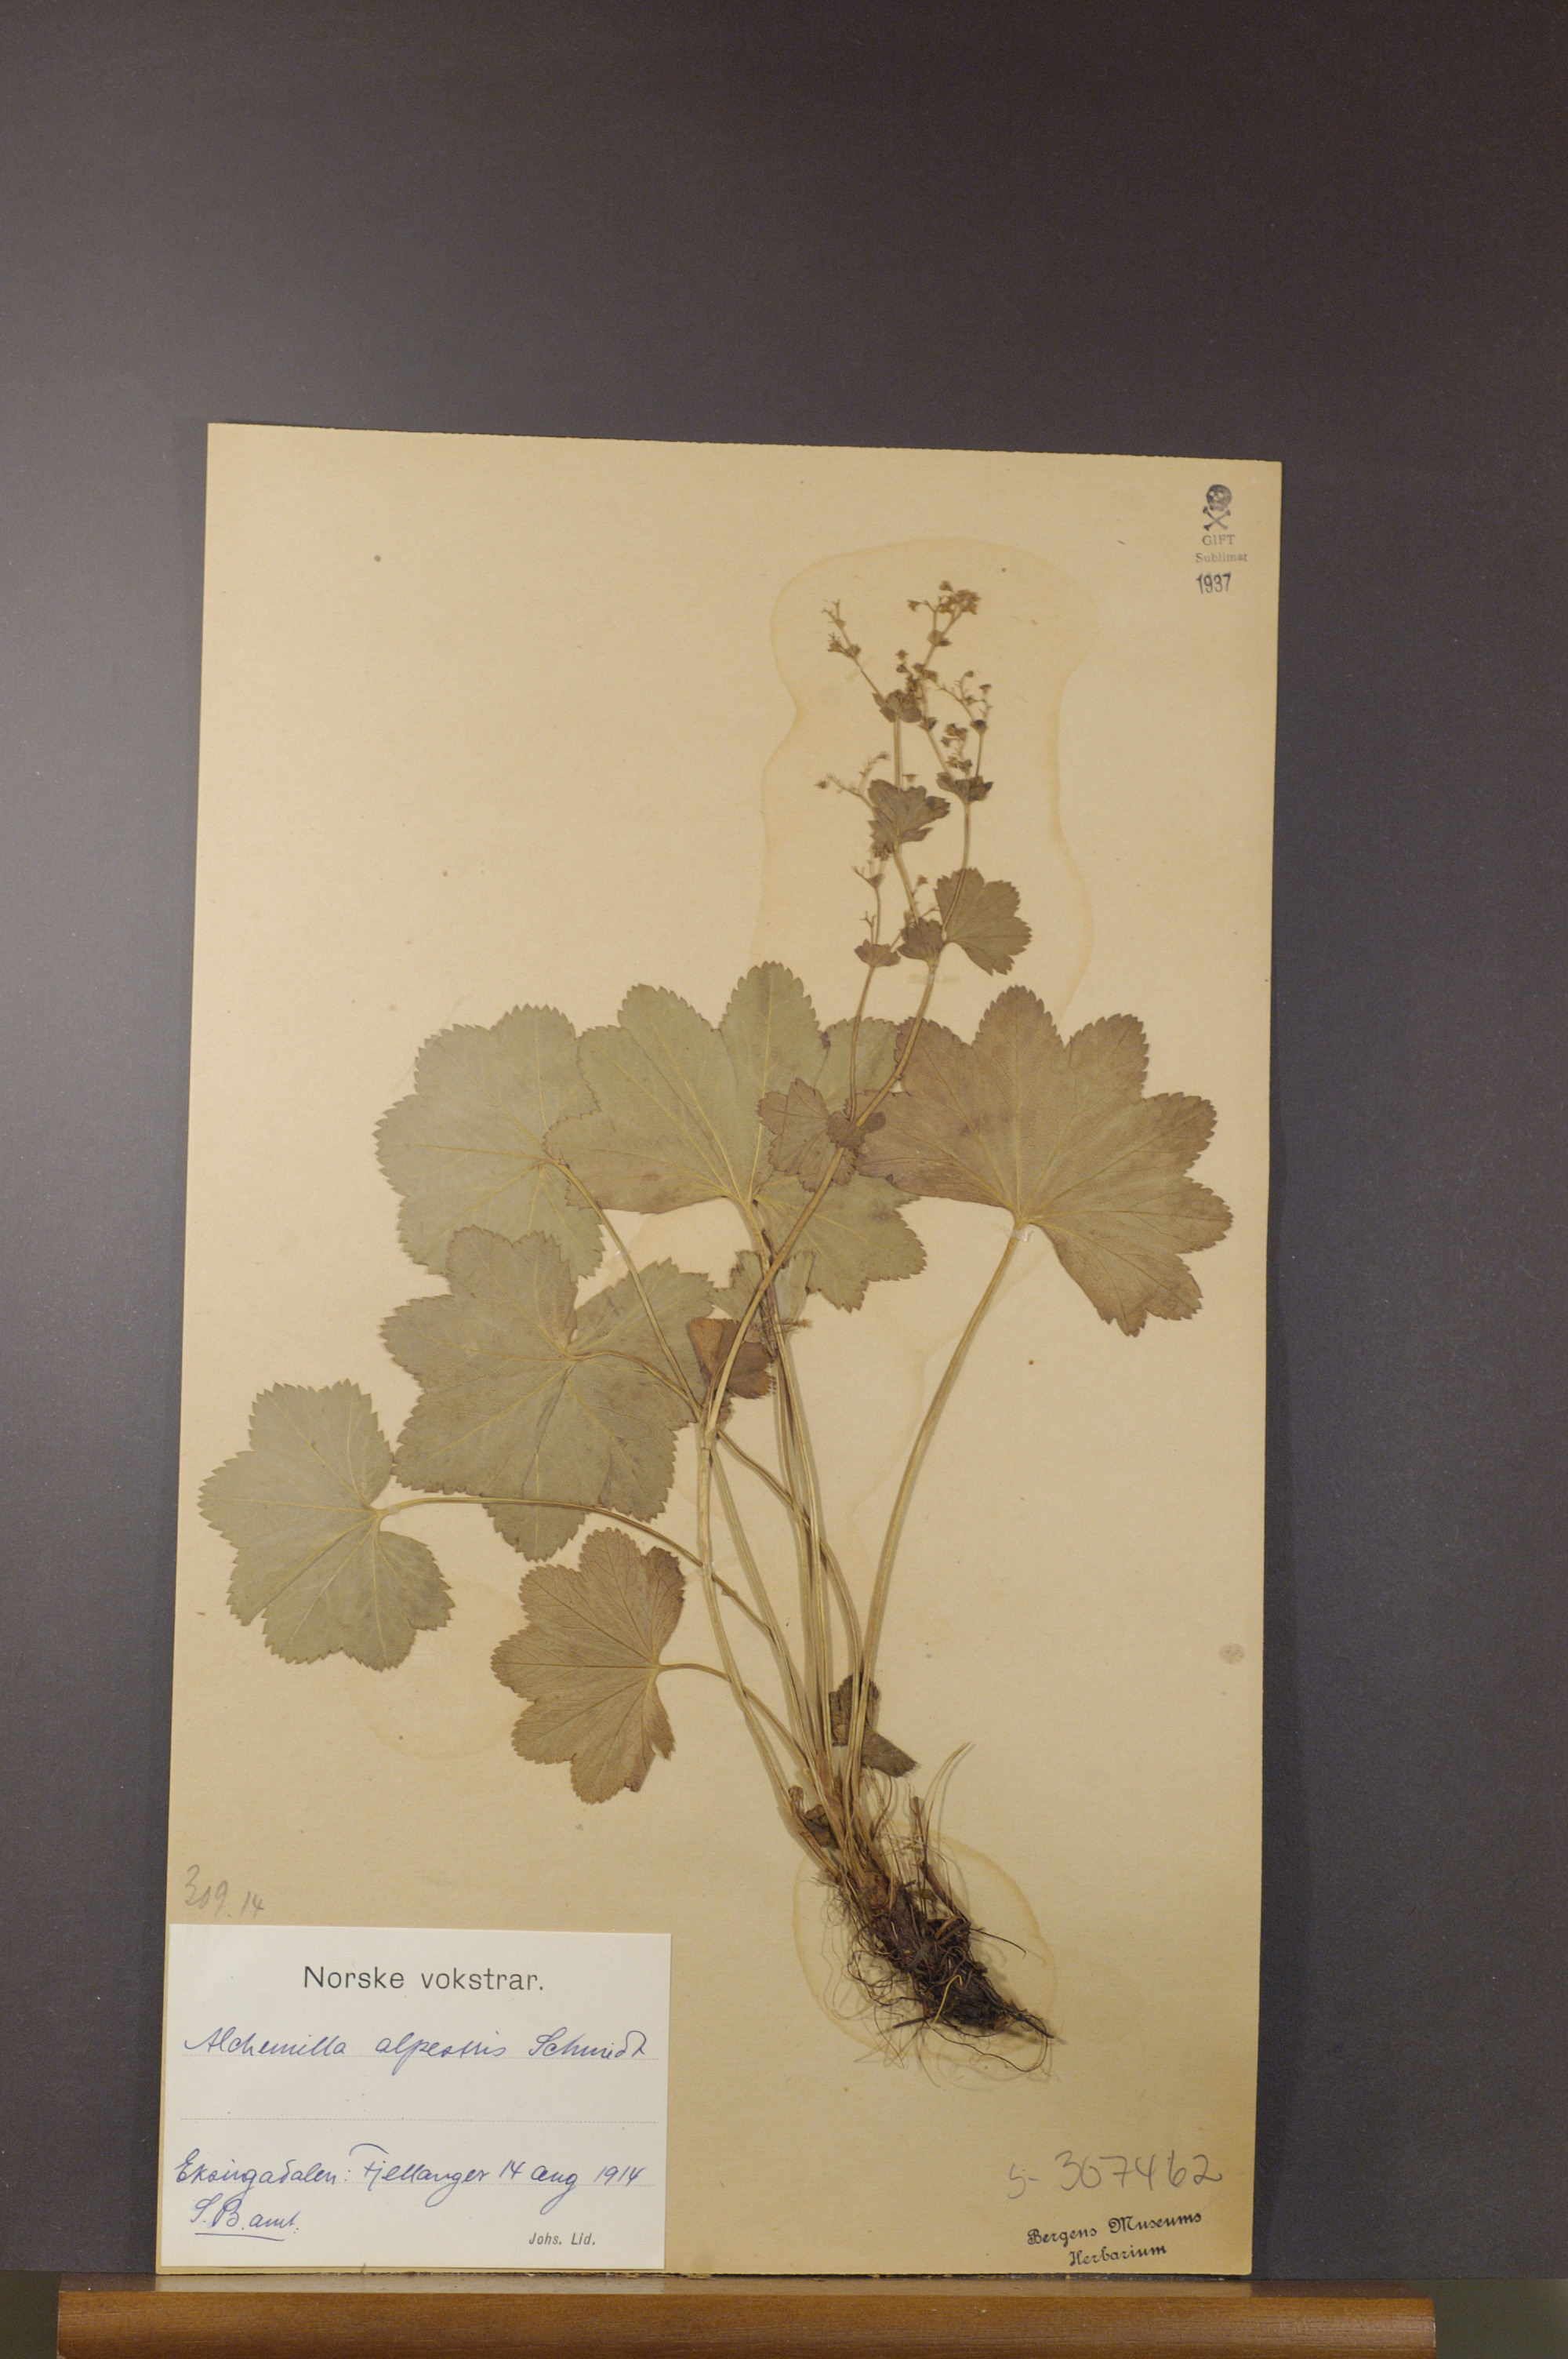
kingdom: Plantae
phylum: Tracheophyta
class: Magnoliopsida
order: Rosales
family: Rosaceae
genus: Alchemilla
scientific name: Alchemilla glabra
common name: Smooth lady's-mantle
